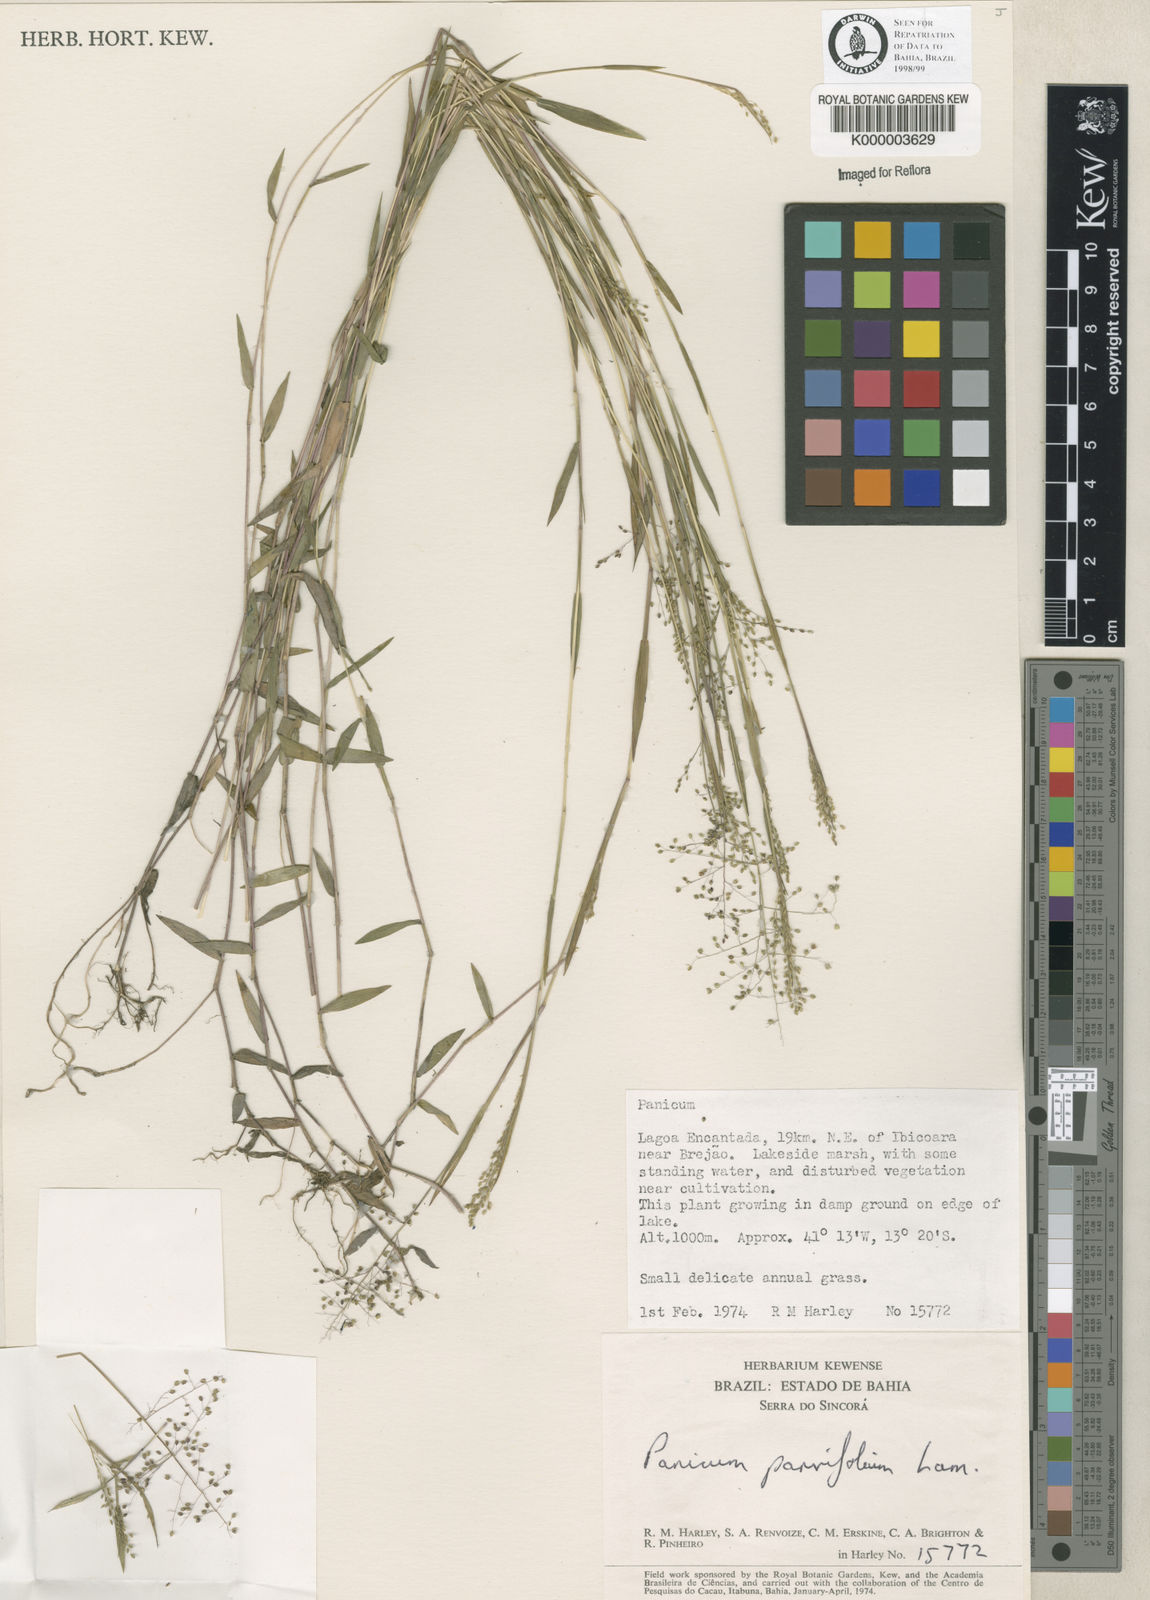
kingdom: Plantae
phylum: Tracheophyta
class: Liliopsida
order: Poales
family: Poaceae
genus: Trichanthecium
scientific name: Trichanthecium parvifolium
